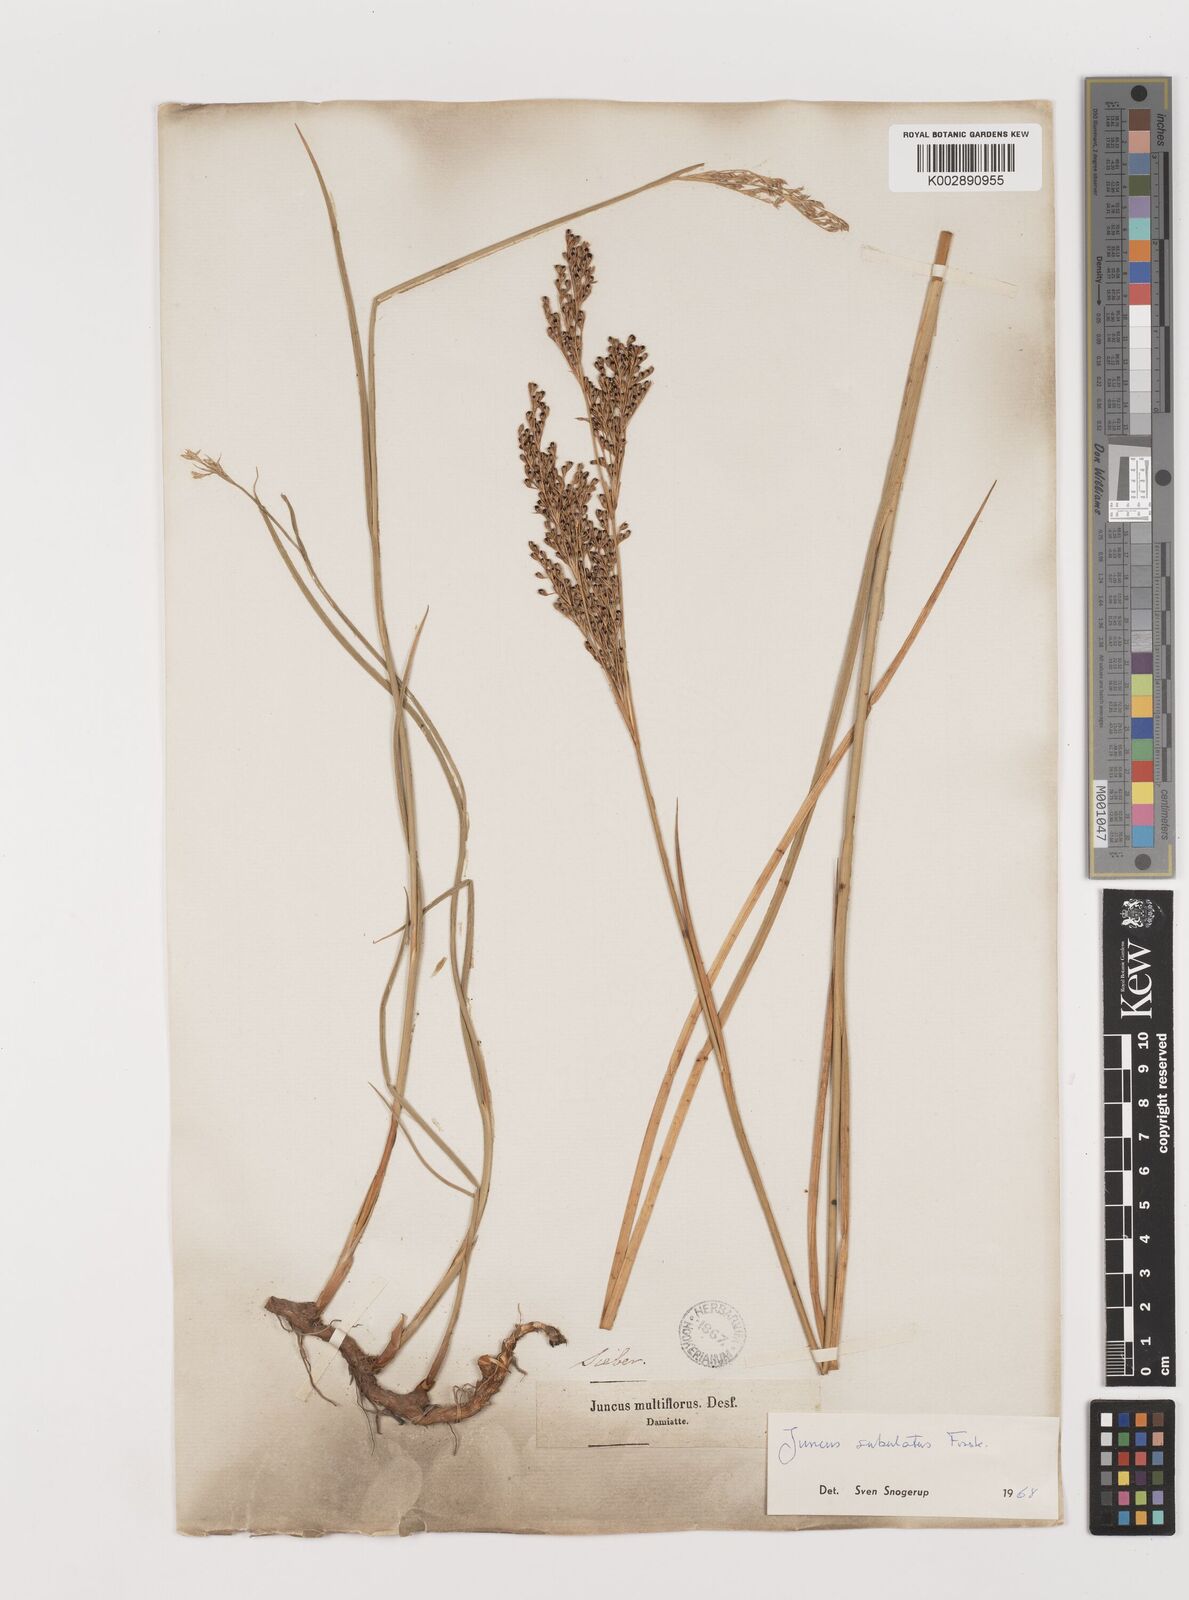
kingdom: Plantae
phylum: Tracheophyta
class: Liliopsida
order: Poales
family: Juncaceae
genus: Juncus
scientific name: Juncus subulatus
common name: Somerset rush
